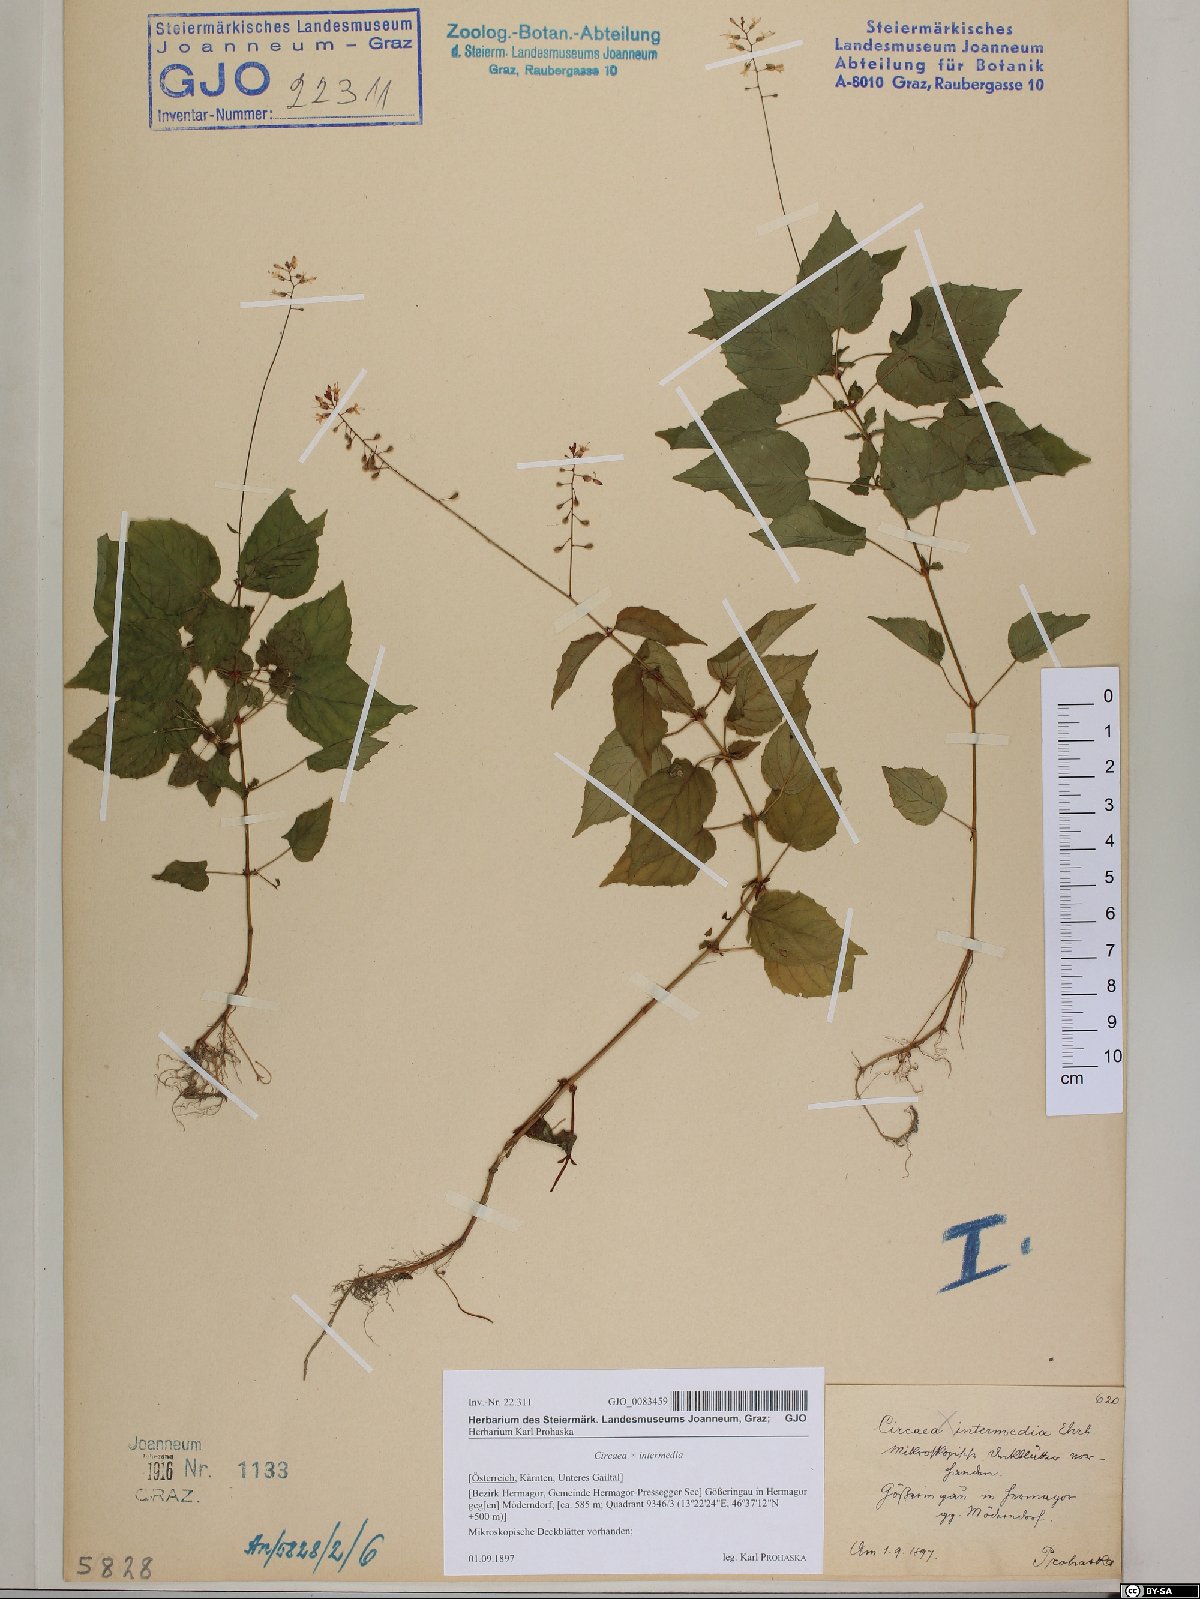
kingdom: Plantae
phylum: Tracheophyta
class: Magnoliopsida
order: Myrtales
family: Onagraceae
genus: Circaea
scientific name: Circaea intermedia
